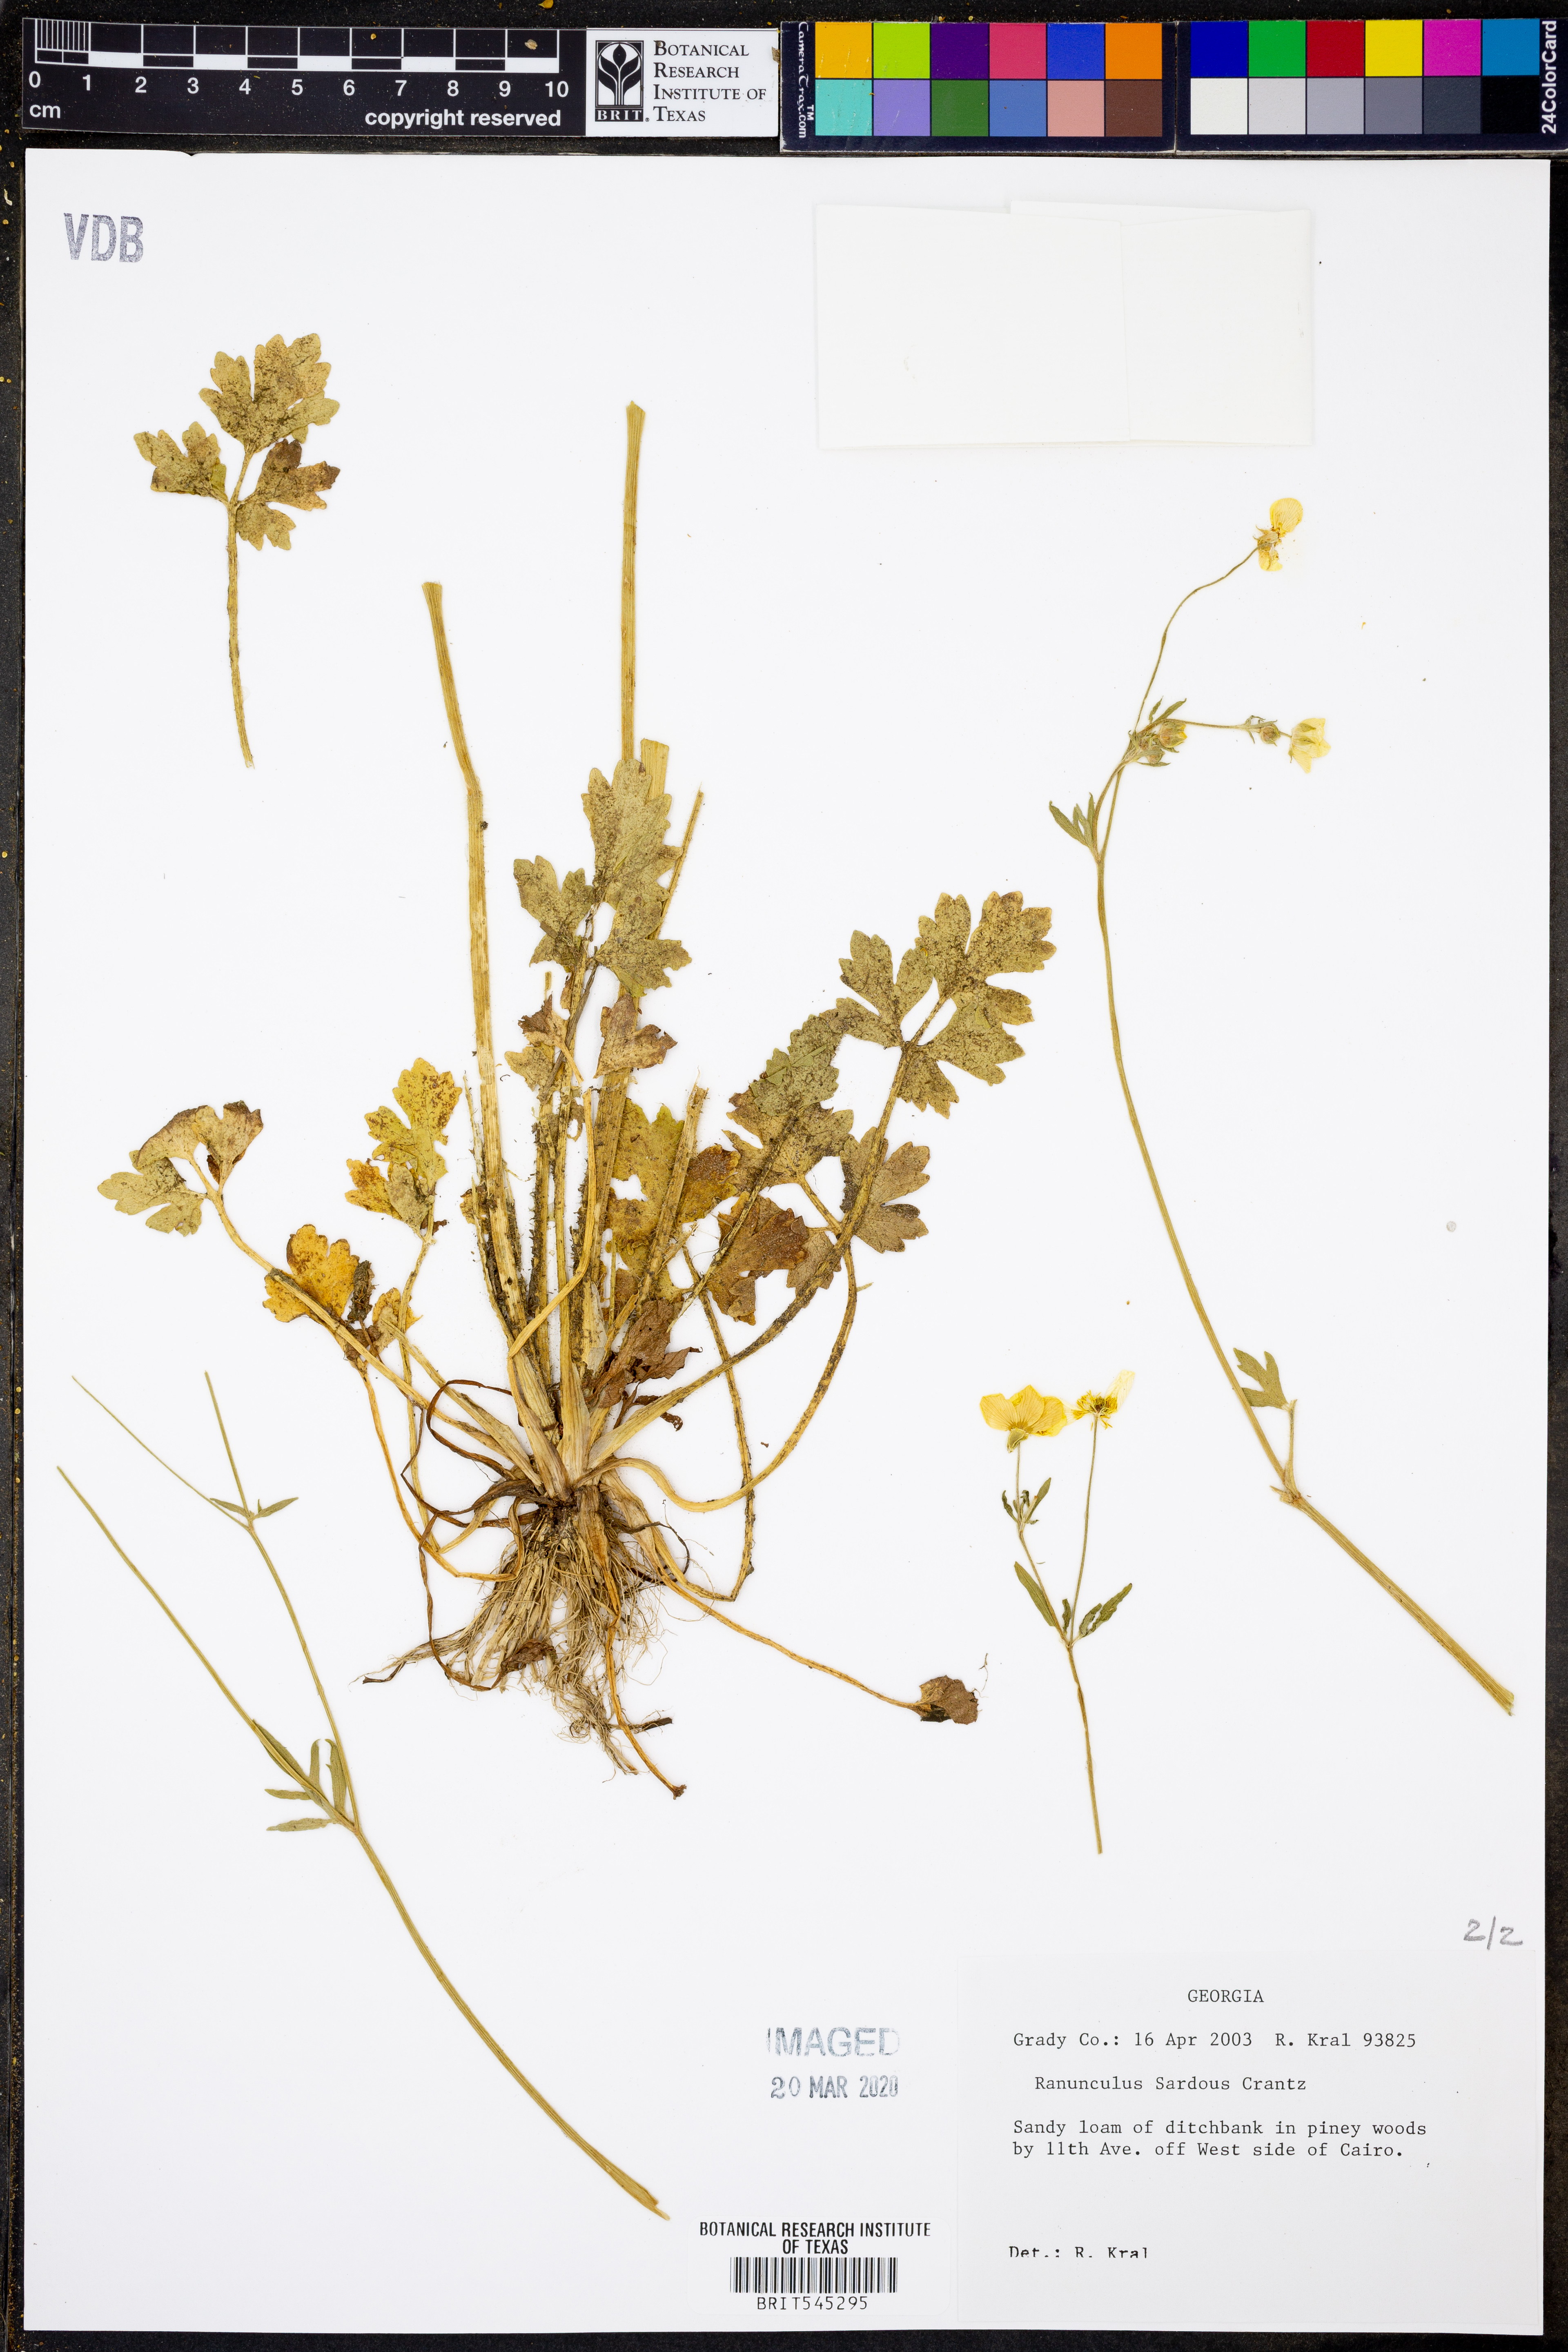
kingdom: Plantae
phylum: Tracheophyta
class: Magnoliopsida
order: Ranunculales
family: Ranunculaceae
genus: Ranunculus
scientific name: Ranunculus sardous
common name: Hairy buttercup
